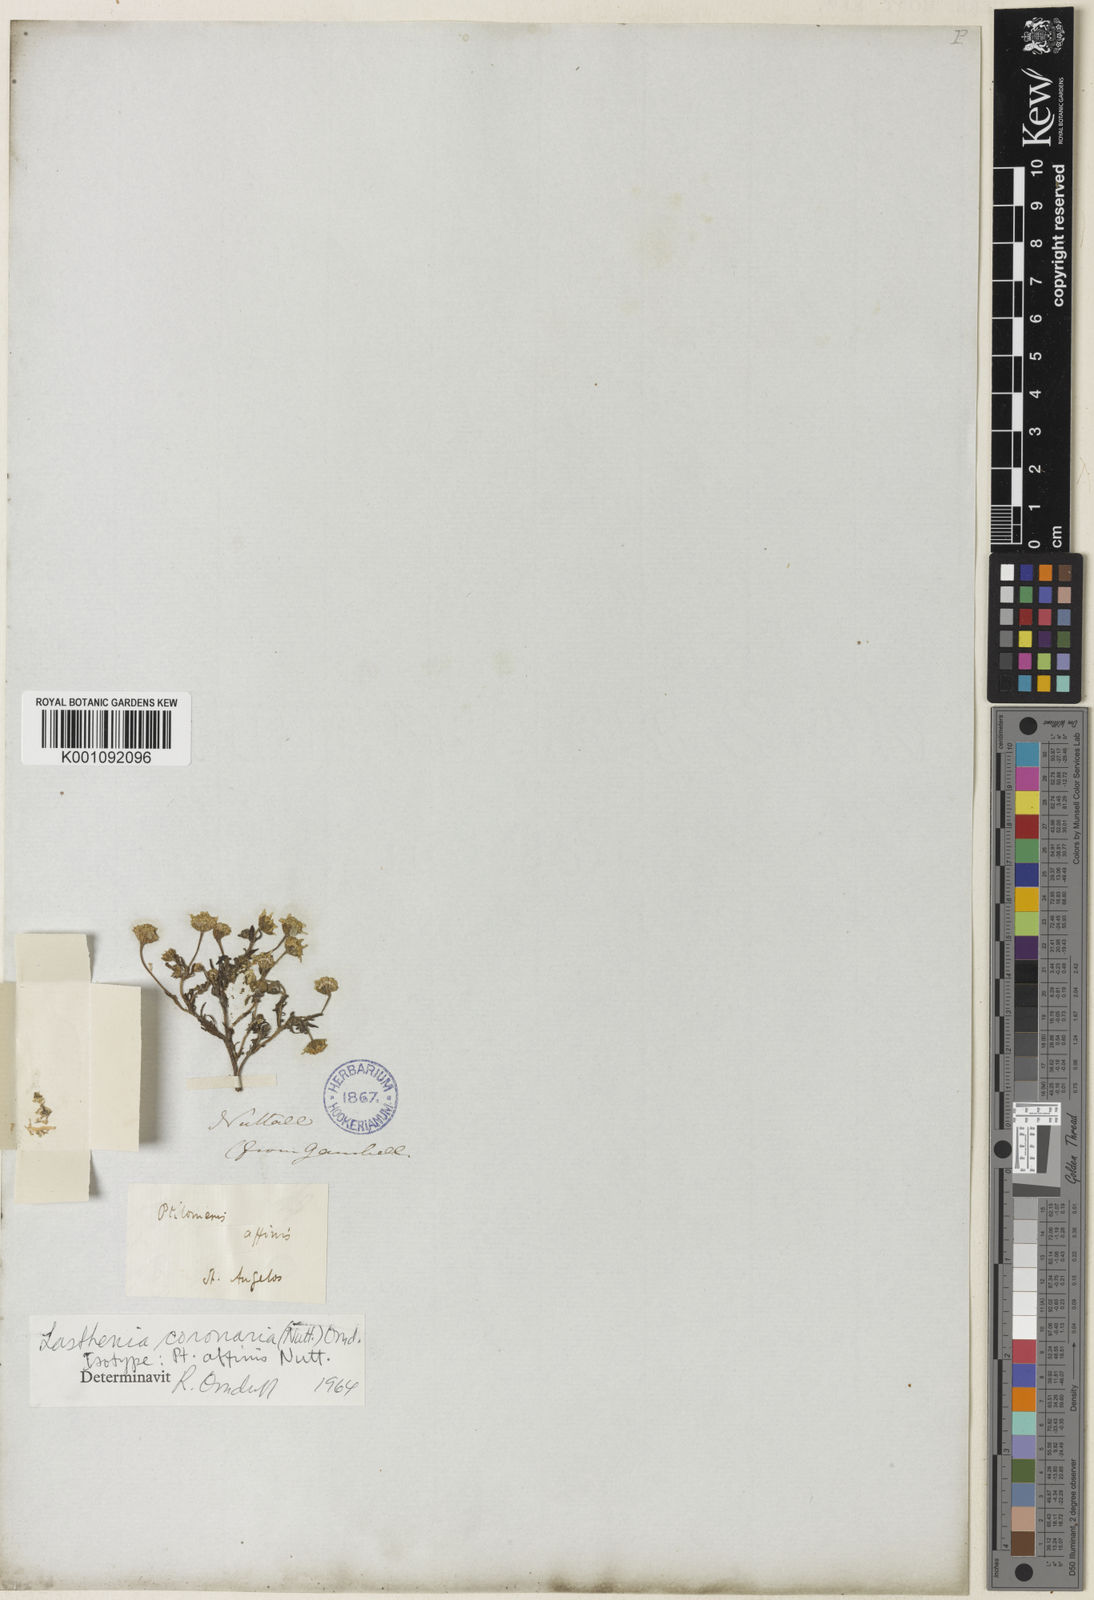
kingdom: Plantae
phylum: Tracheophyta
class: Magnoliopsida
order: Asterales
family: Asteraceae
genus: Lasthenia
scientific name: Lasthenia coronaria
